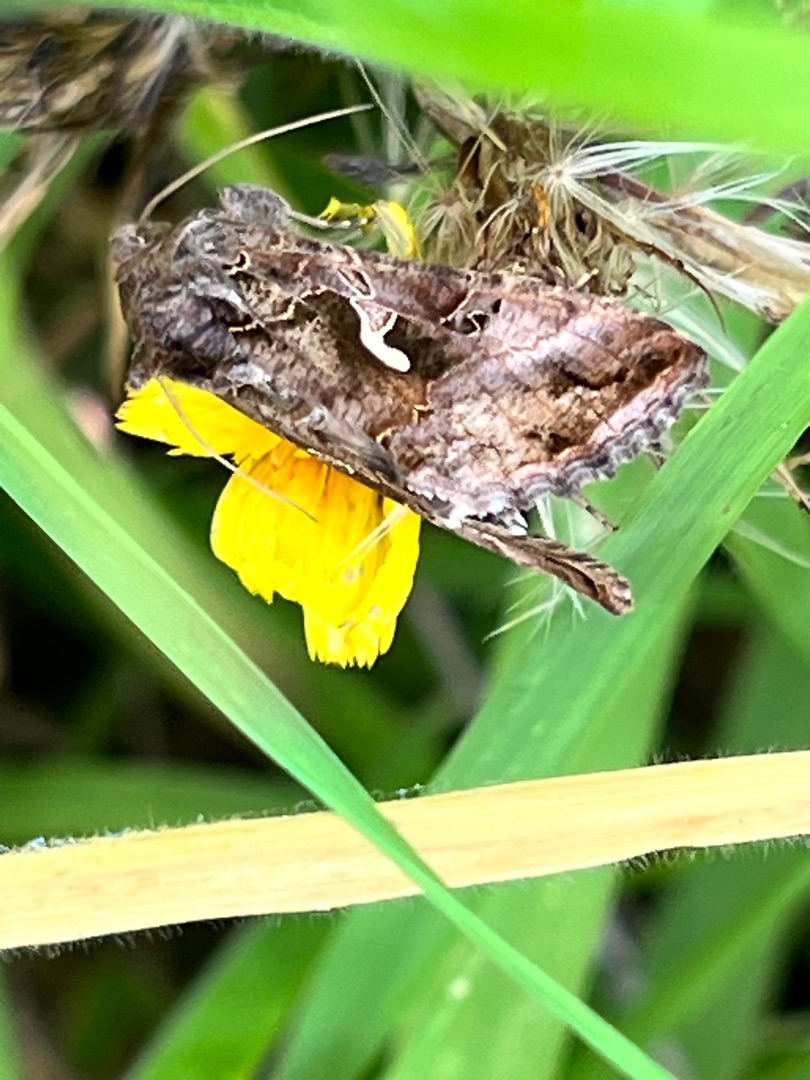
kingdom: Animalia
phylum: Arthropoda
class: Insecta
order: Lepidoptera
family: Noctuidae
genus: Autographa
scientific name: Autographa gamma
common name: Gammaugle
